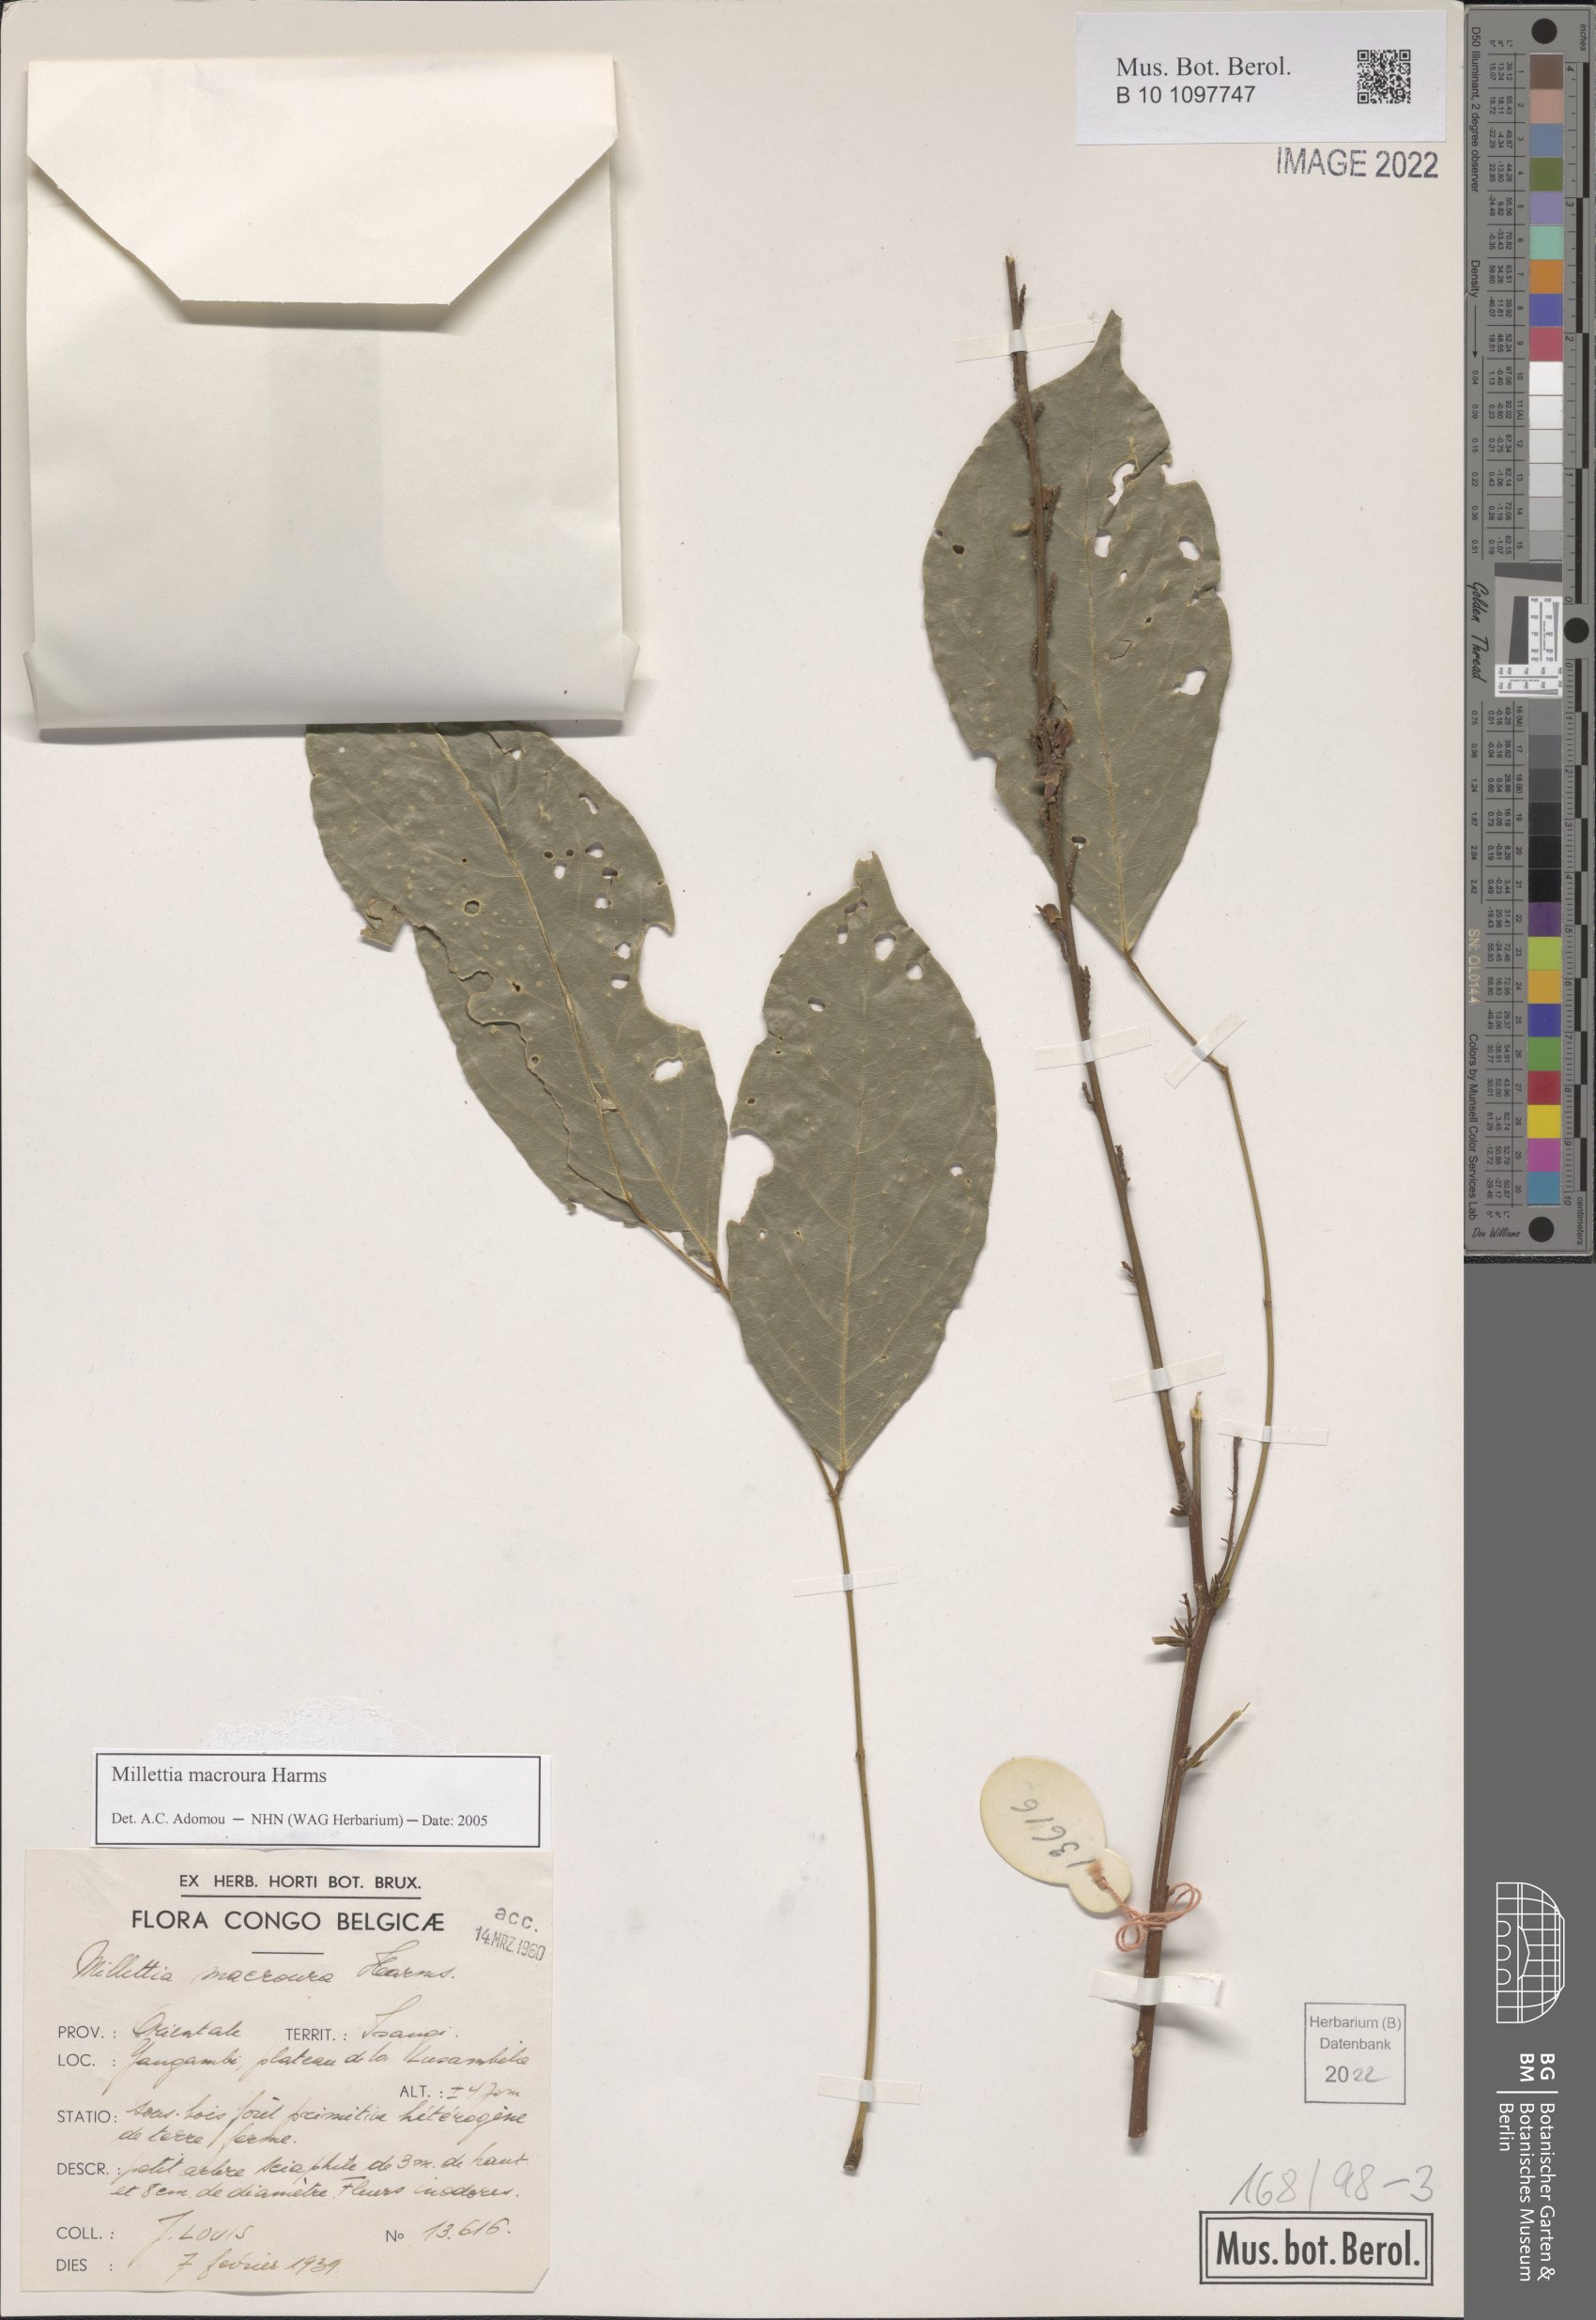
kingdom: Plantae
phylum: Tracheophyta
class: Magnoliopsida
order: Fabales
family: Fabaceae
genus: Millettia
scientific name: Millettia macroura
